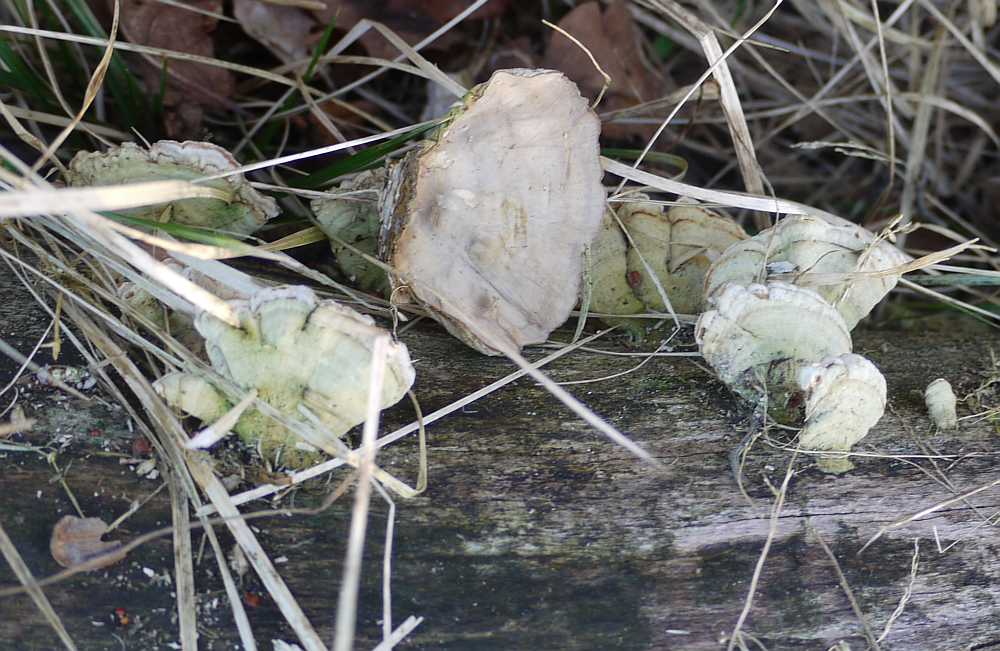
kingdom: Fungi
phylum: Basidiomycota
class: Agaricomycetes
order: Russulales
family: Stereaceae
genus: Stereum
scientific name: Stereum subtomentosum
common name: smuk lædersvamp
